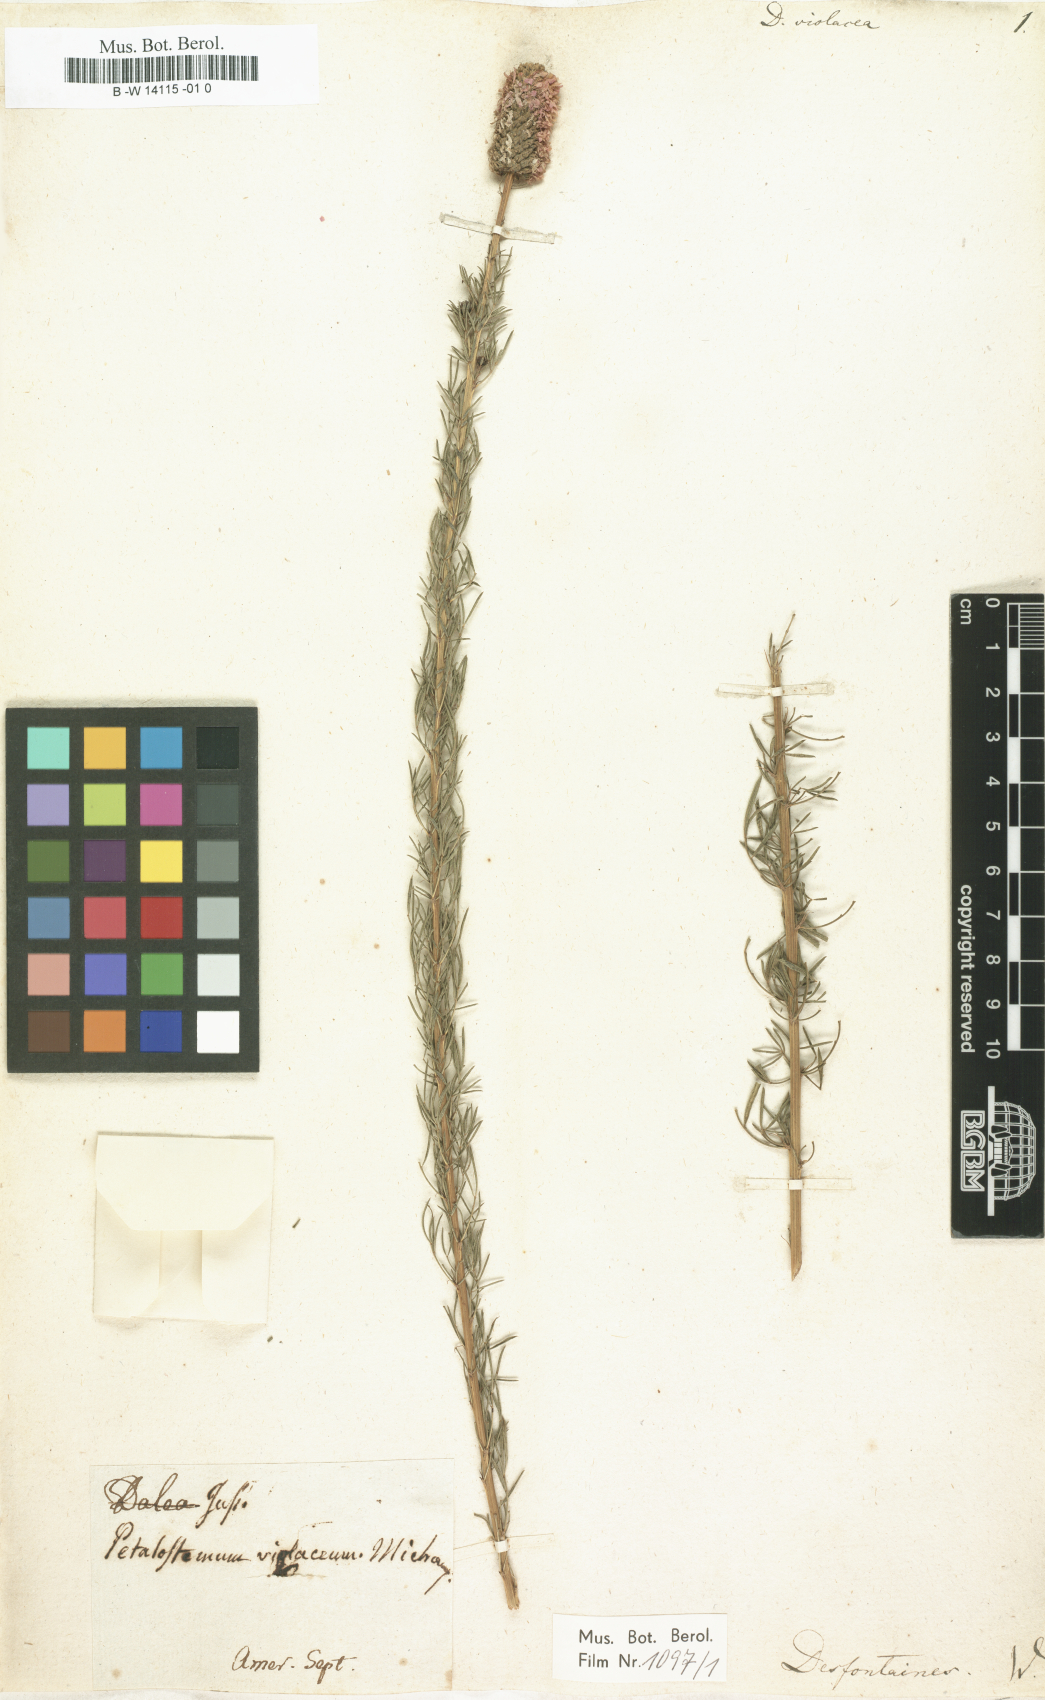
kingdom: Plantae
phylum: Tracheophyta
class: Magnoliopsida
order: Fabales
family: Fabaceae
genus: Dalea
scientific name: Dalea purpurea
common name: Purple prairie-clover
